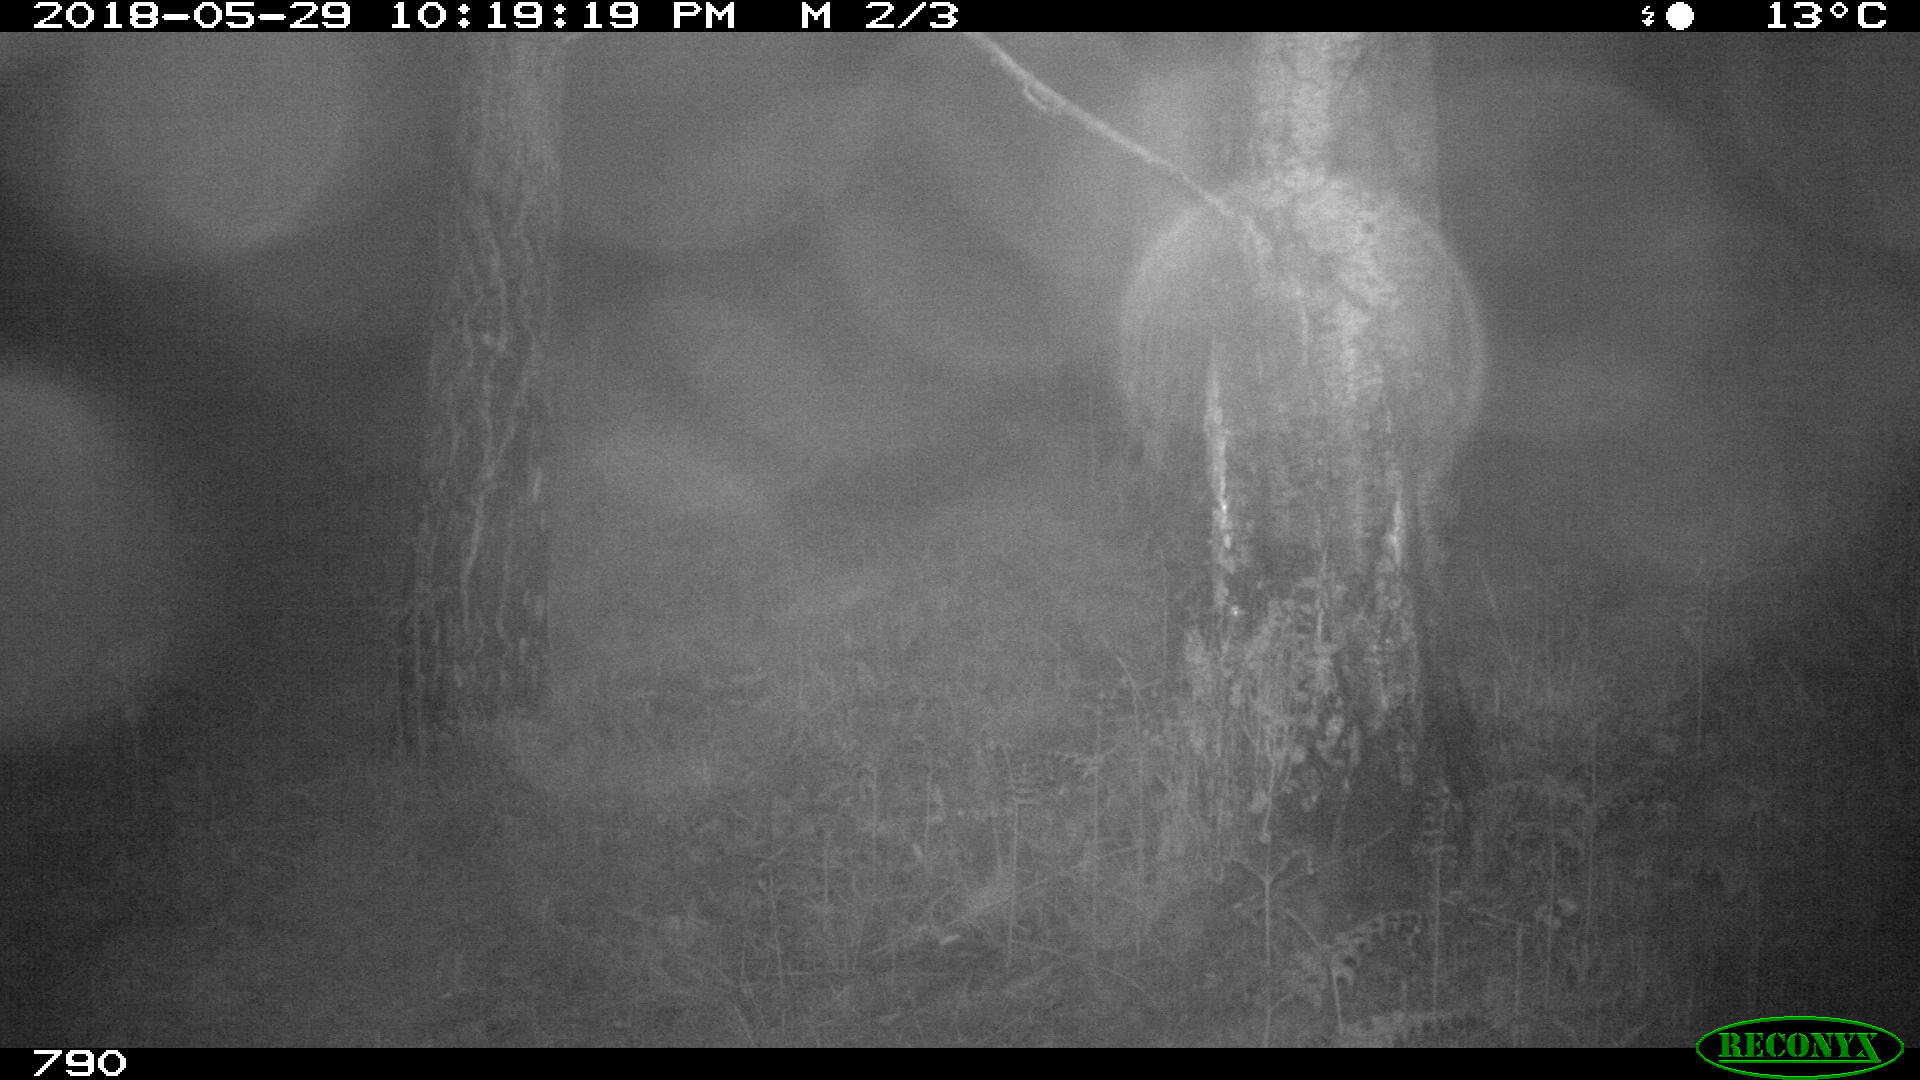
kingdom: Animalia
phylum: Chordata
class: Mammalia
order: Perissodactyla
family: Equidae
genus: Equus
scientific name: Equus caballus
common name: Horse
